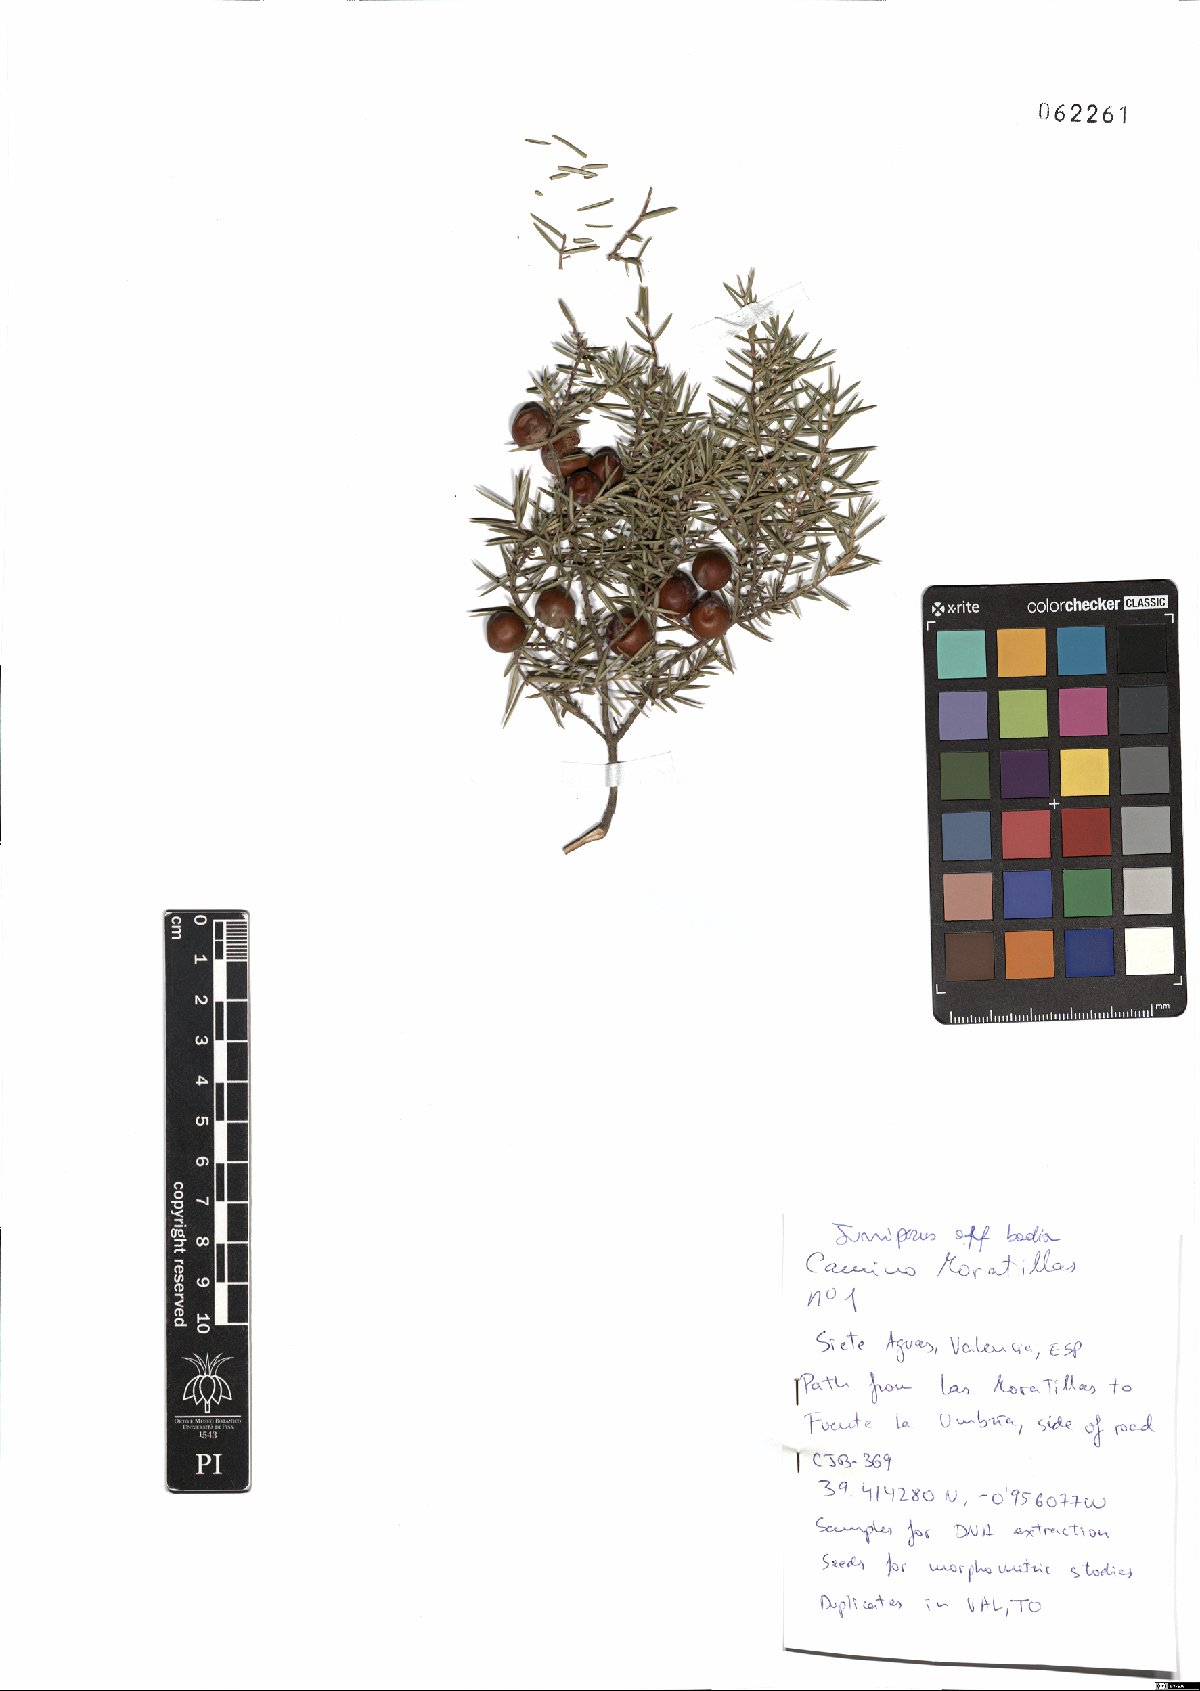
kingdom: Plantae
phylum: Tracheophyta
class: Pinopsida
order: Pinales
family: Cupressaceae
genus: Juniperus
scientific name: Juniperus oxycedrus
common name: Prickly juniper
